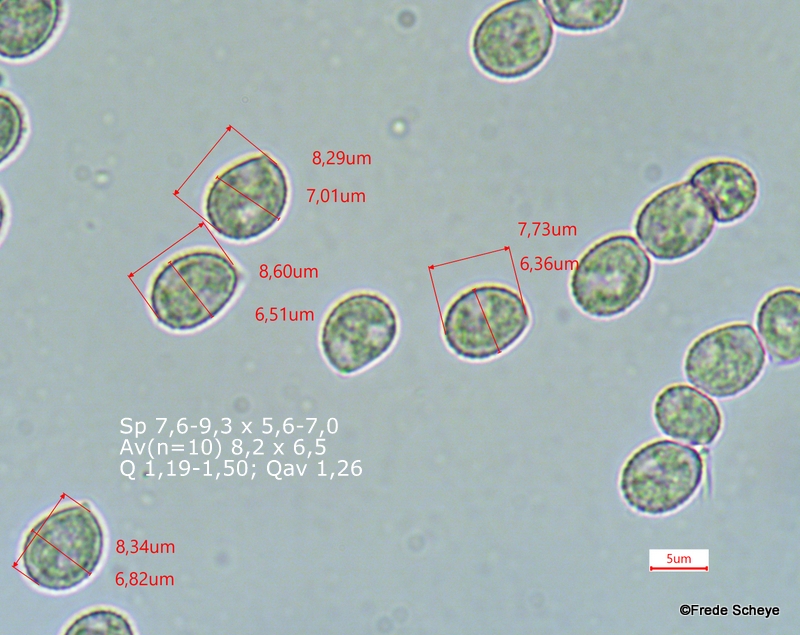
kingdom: Fungi
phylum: Basidiomycota
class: Agaricomycetes
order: Agaricales
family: Crepidotaceae
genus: Crepidotus
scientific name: Crepidotus cesatii
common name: almindelig muslingesvamp
